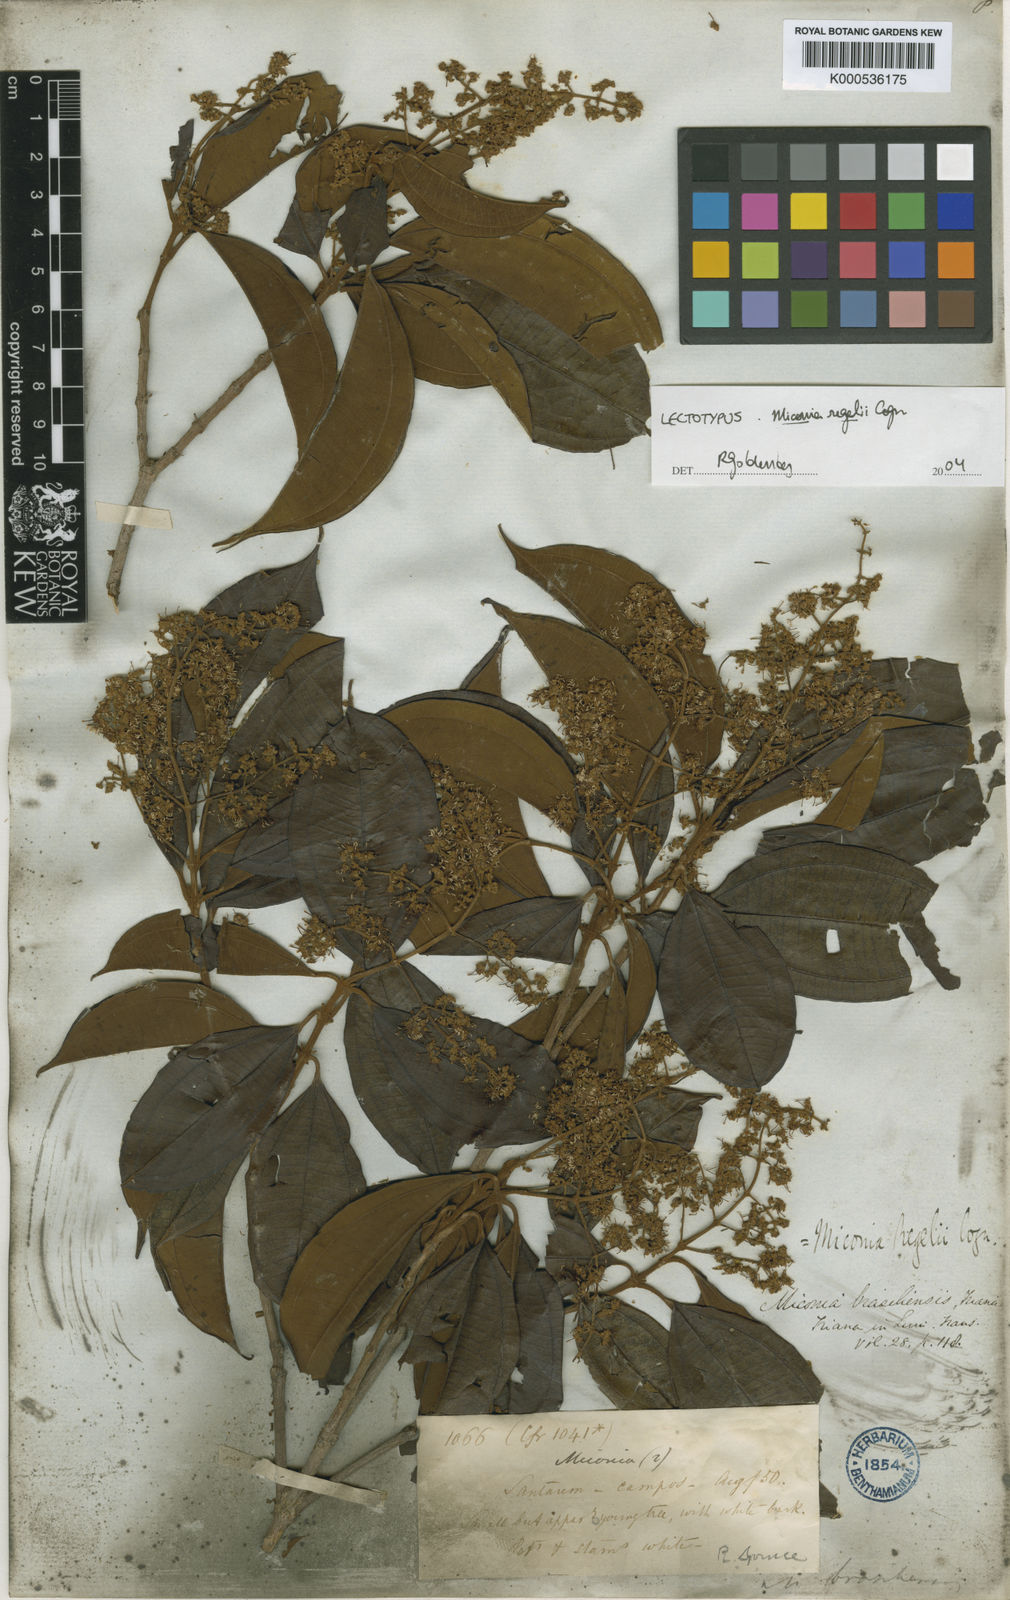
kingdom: Plantae
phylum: Tracheophyta
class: Magnoliopsida
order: Myrtales
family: Melastomataceae
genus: Miconia
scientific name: Miconia regelii
